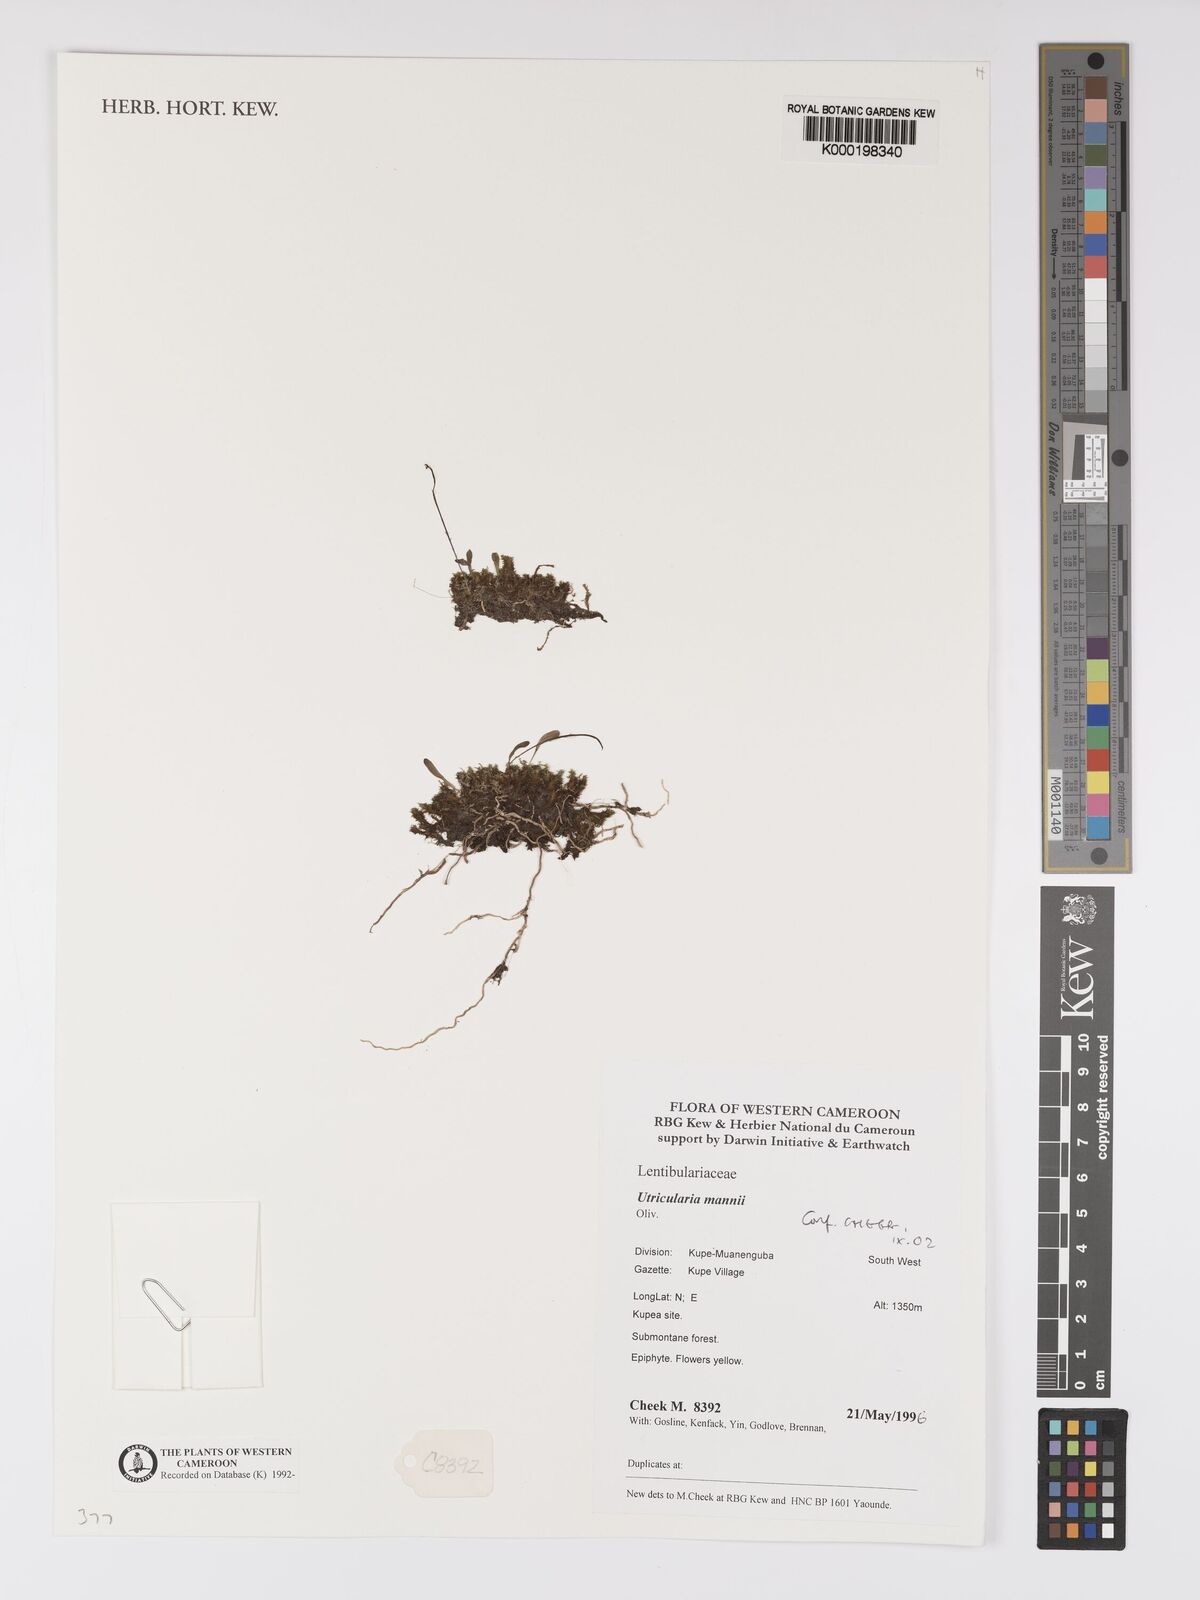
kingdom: Plantae
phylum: Tracheophyta
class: Magnoliopsida
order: Lamiales
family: Lentibulariaceae
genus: Utricularia
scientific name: Utricularia mannii
